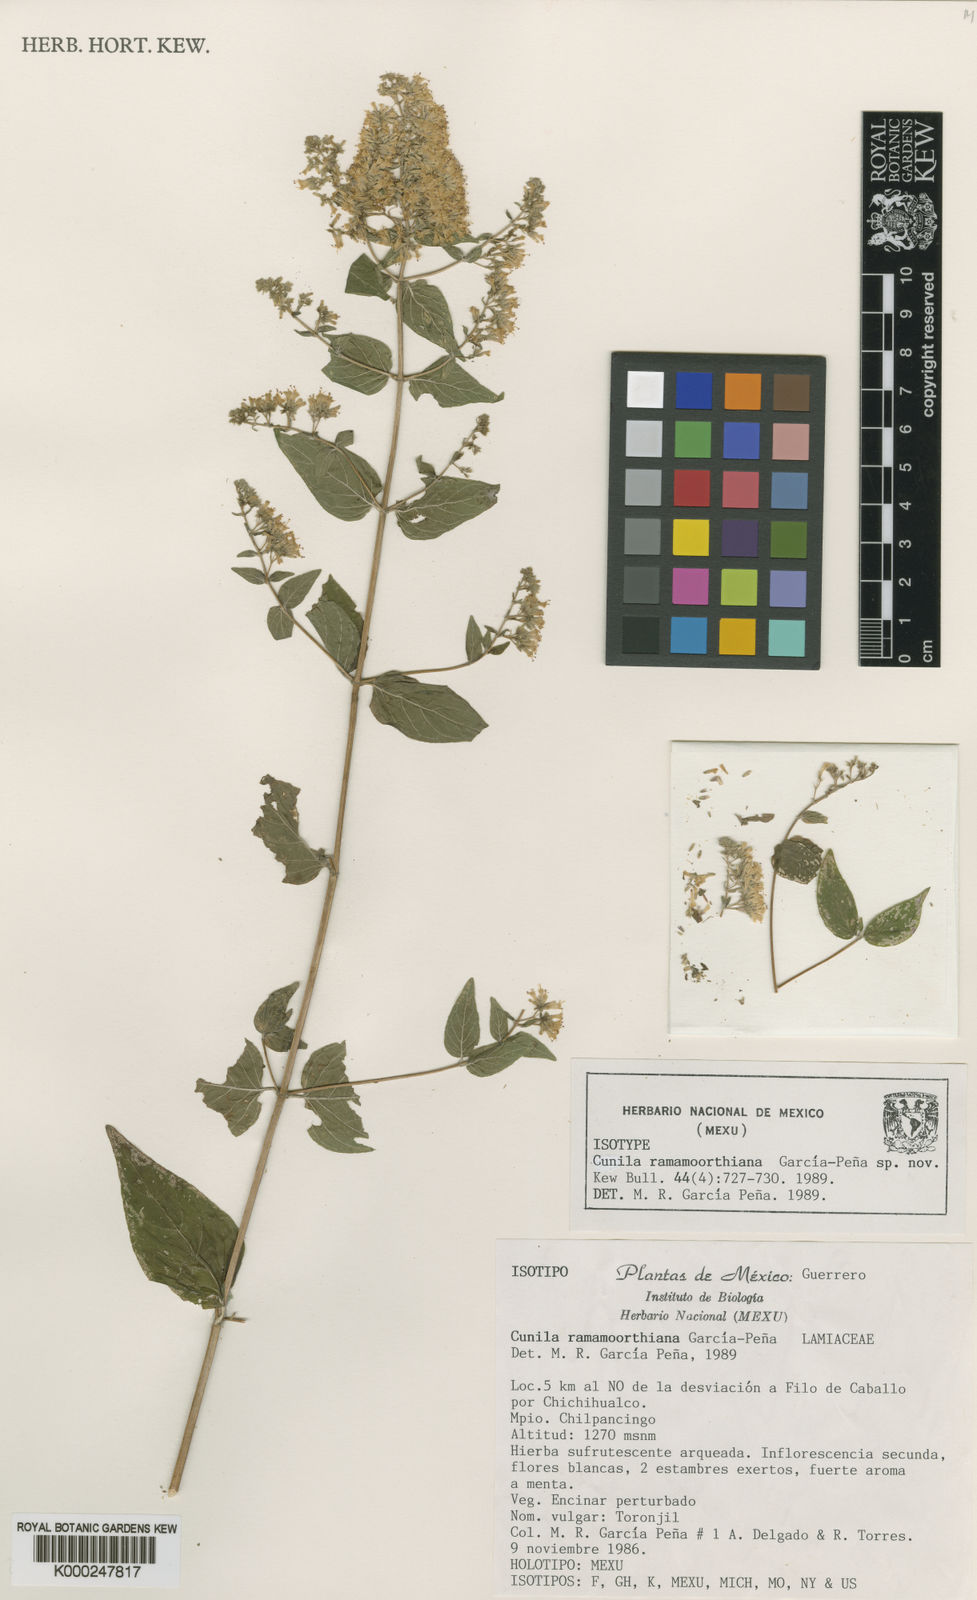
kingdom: Plantae
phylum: Tracheophyta
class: Magnoliopsida
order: Lamiales
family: Lamiaceae
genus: Cunila
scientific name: Cunila
